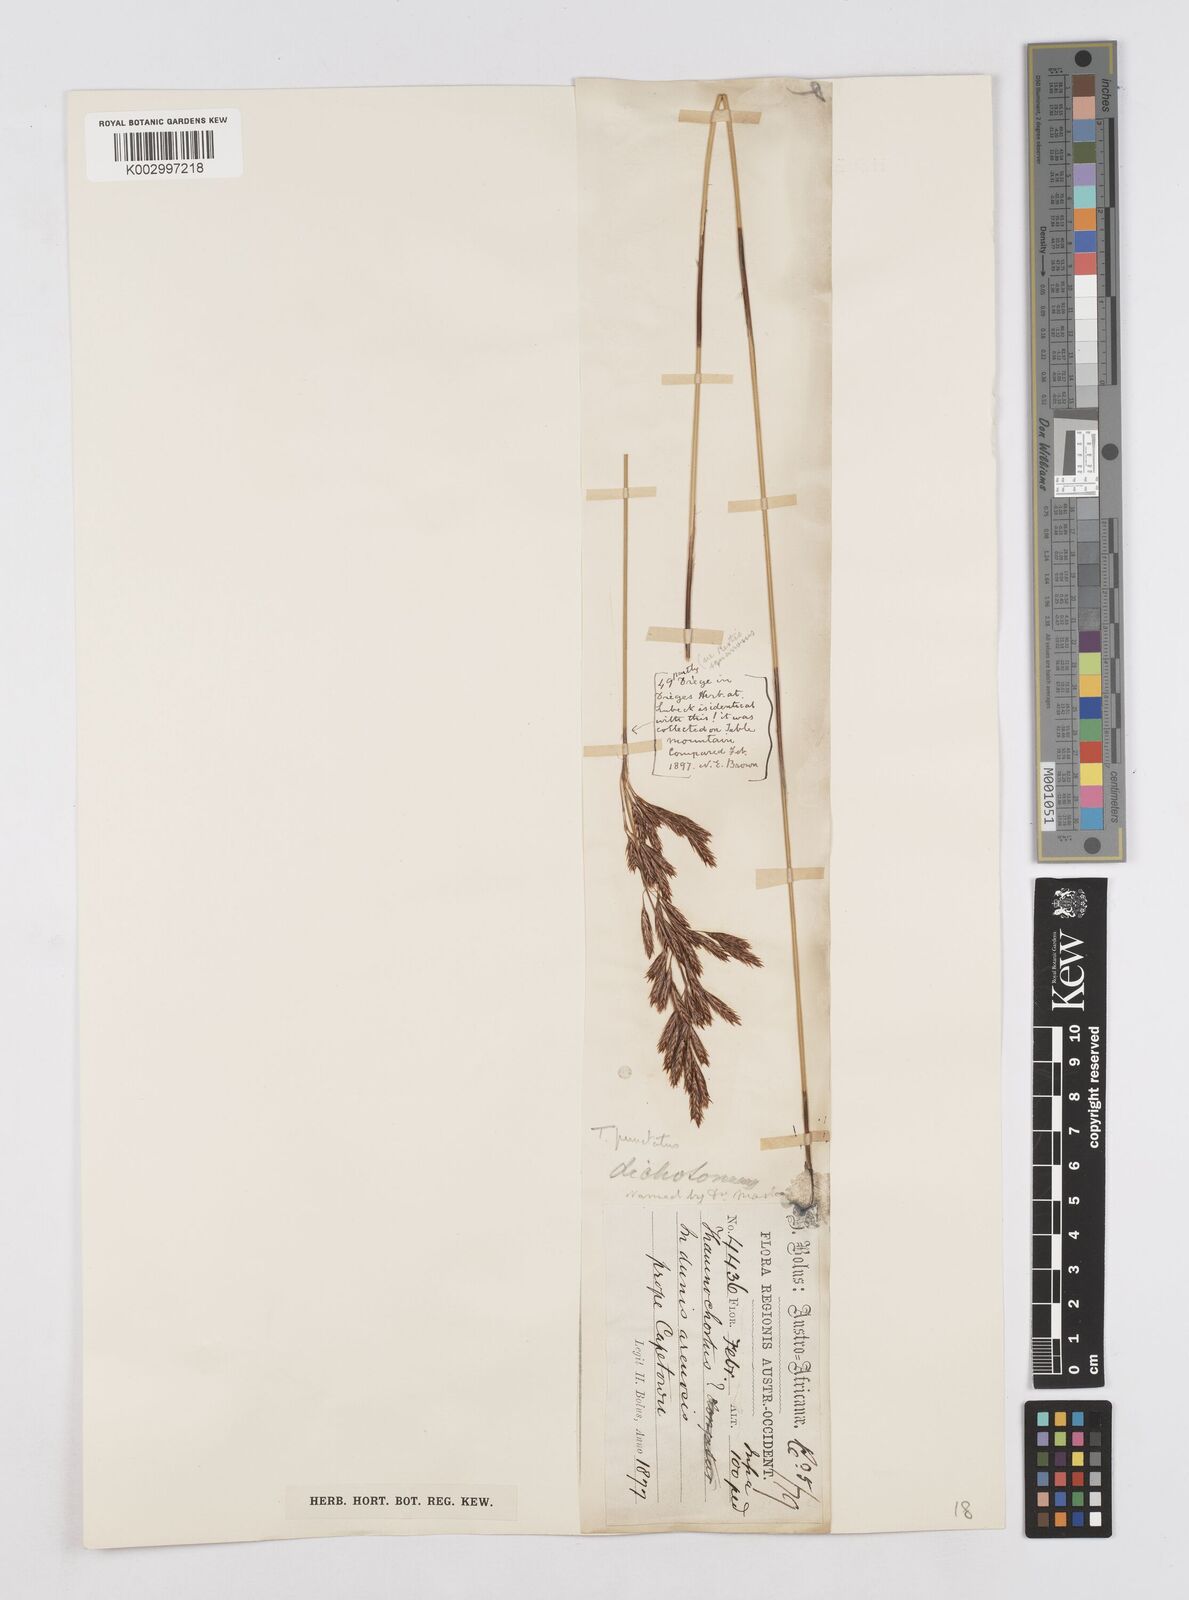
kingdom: Plantae
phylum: Tracheophyta
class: Liliopsida
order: Poales
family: Restionaceae
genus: Thamnochortus
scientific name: Thamnochortus punctatus
